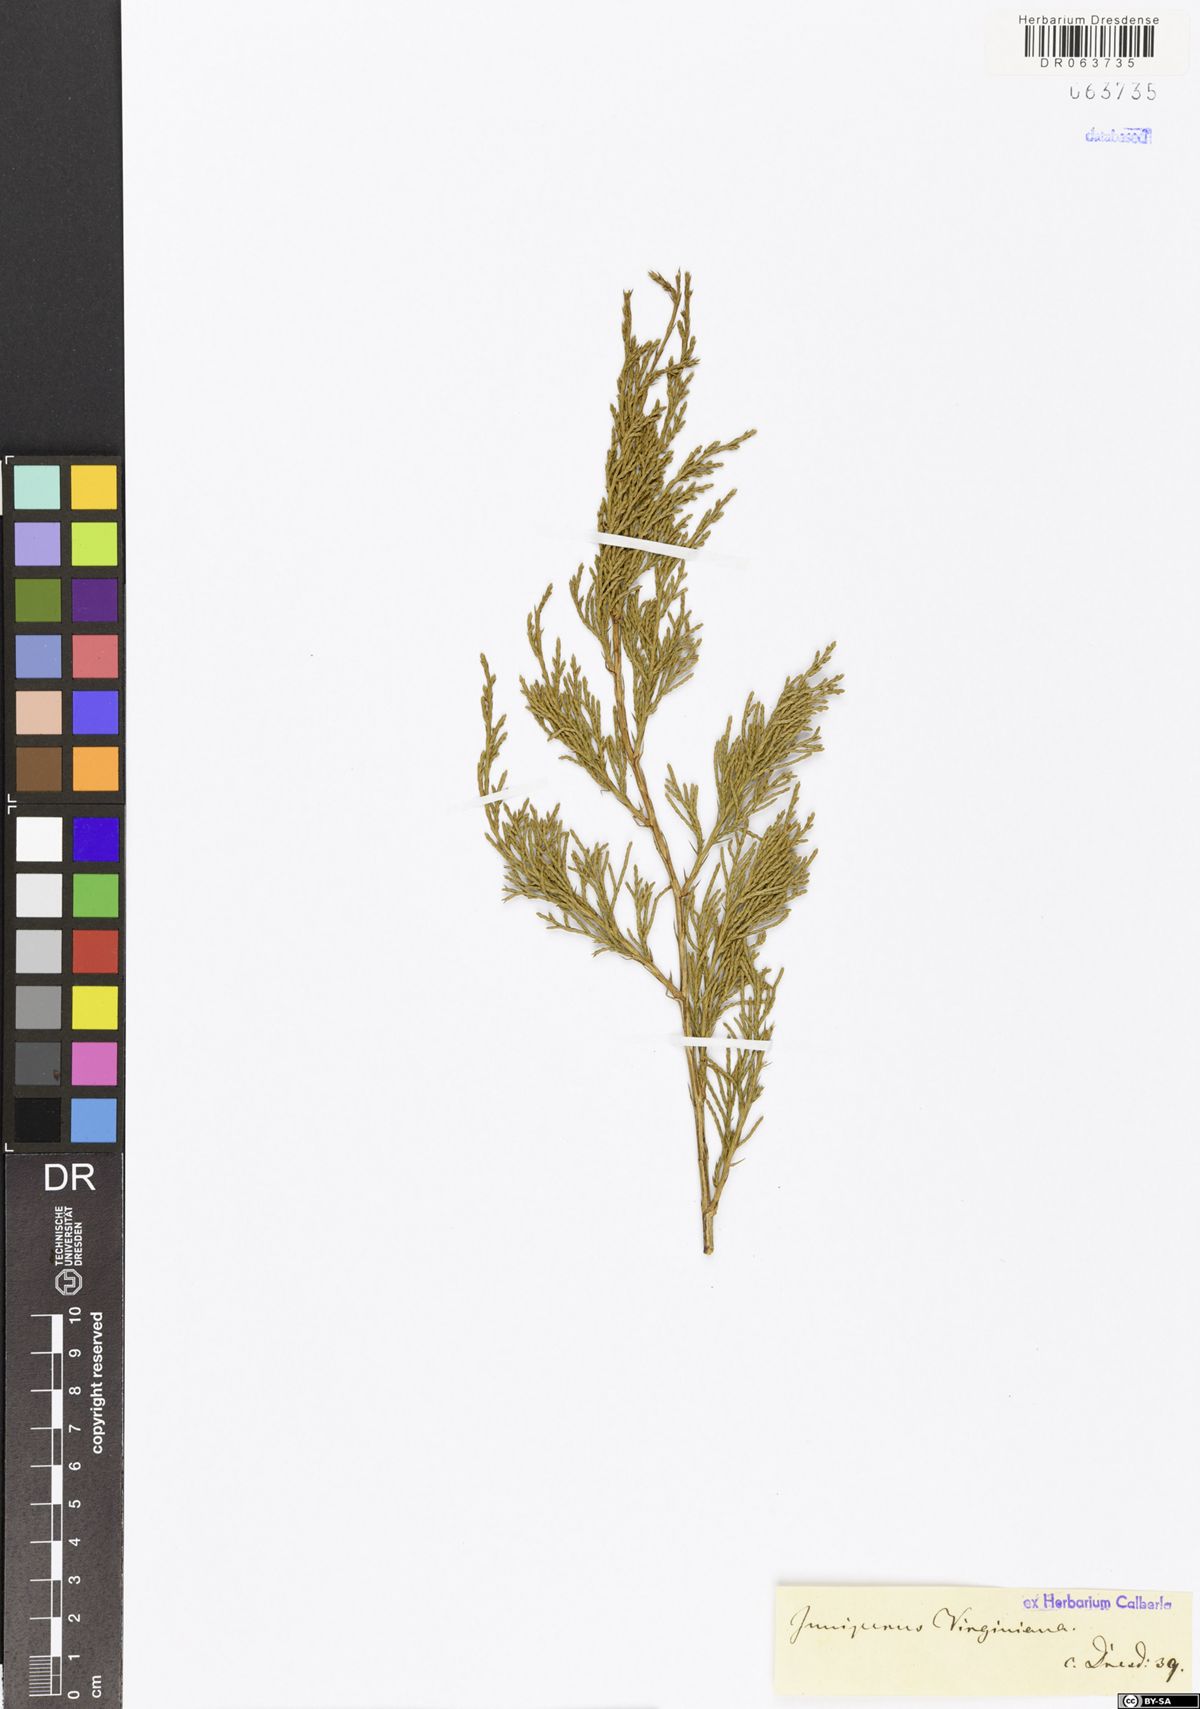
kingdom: Plantae
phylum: Tracheophyta
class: Pinopsida
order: Pinales
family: Cupressaceae
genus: Juniperus
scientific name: Juniperus virginiana
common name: Red juniper
